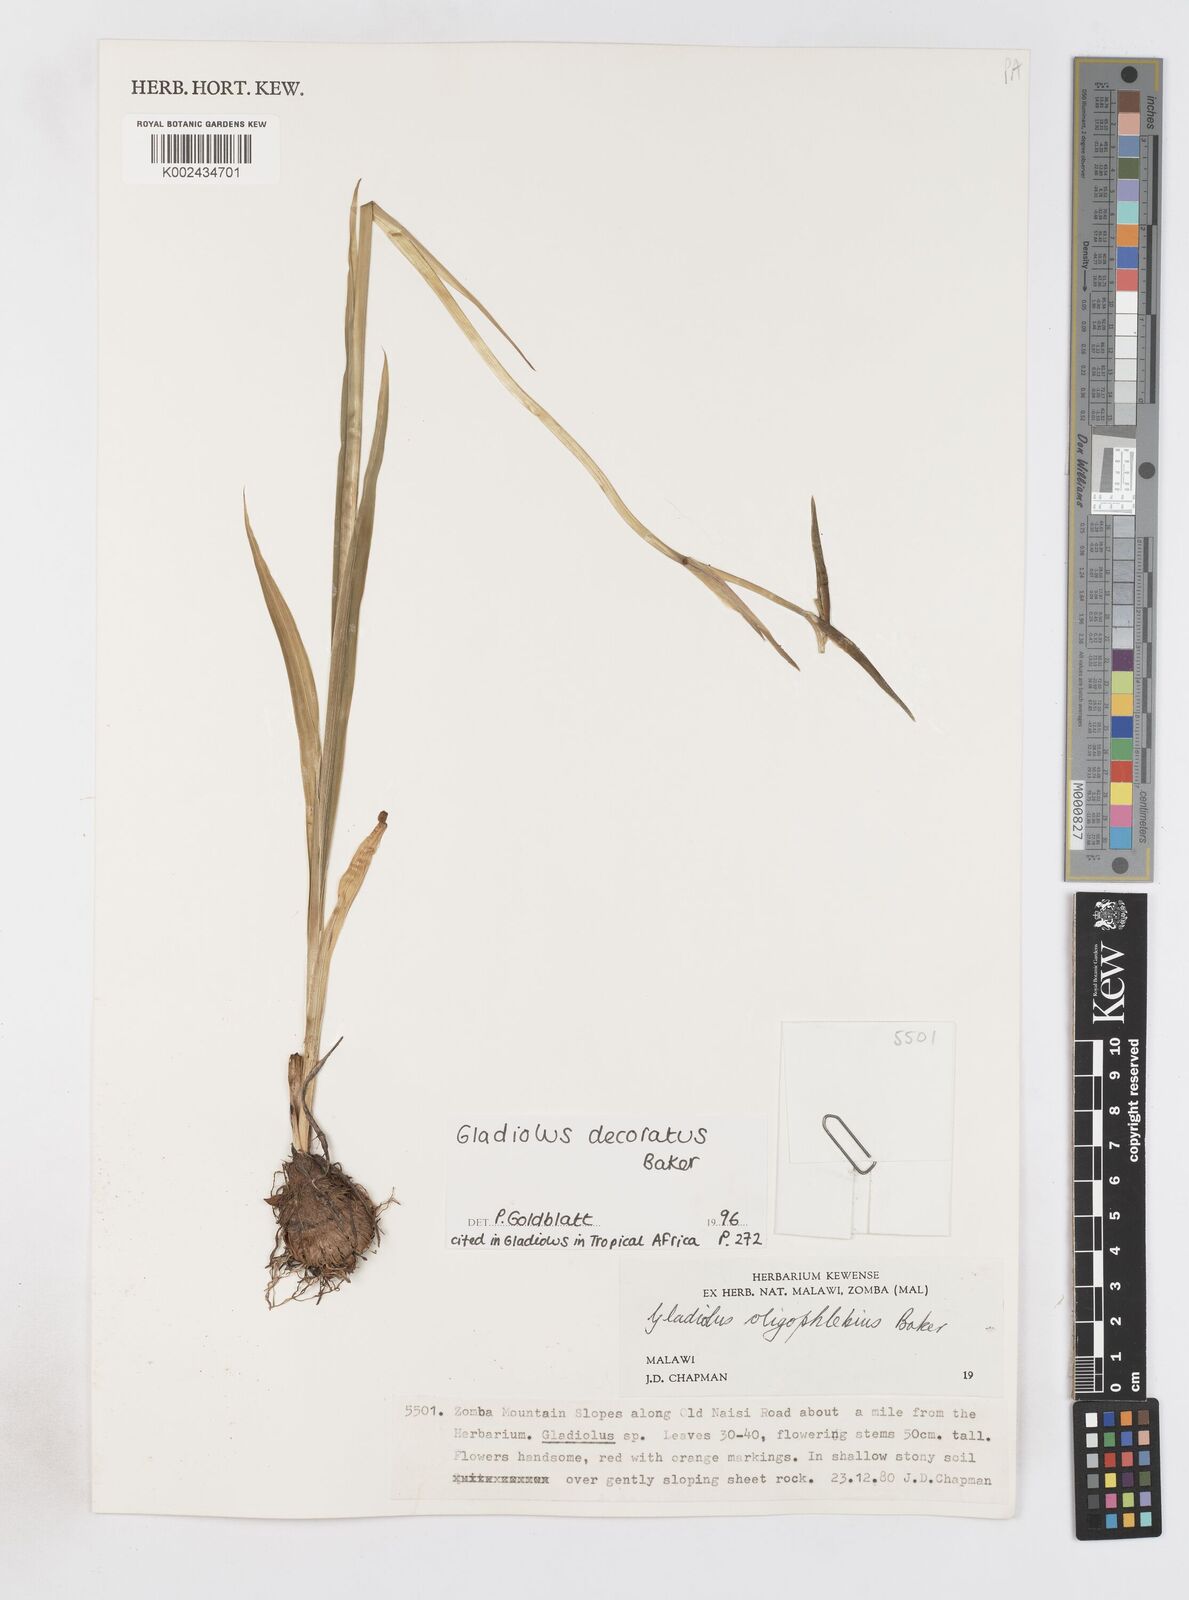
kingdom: Plantae
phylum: Tracheophyta
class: Liliopsida
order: Asparagales
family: Iridaceae
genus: Gladiolus
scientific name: Gladiolus decoratus
